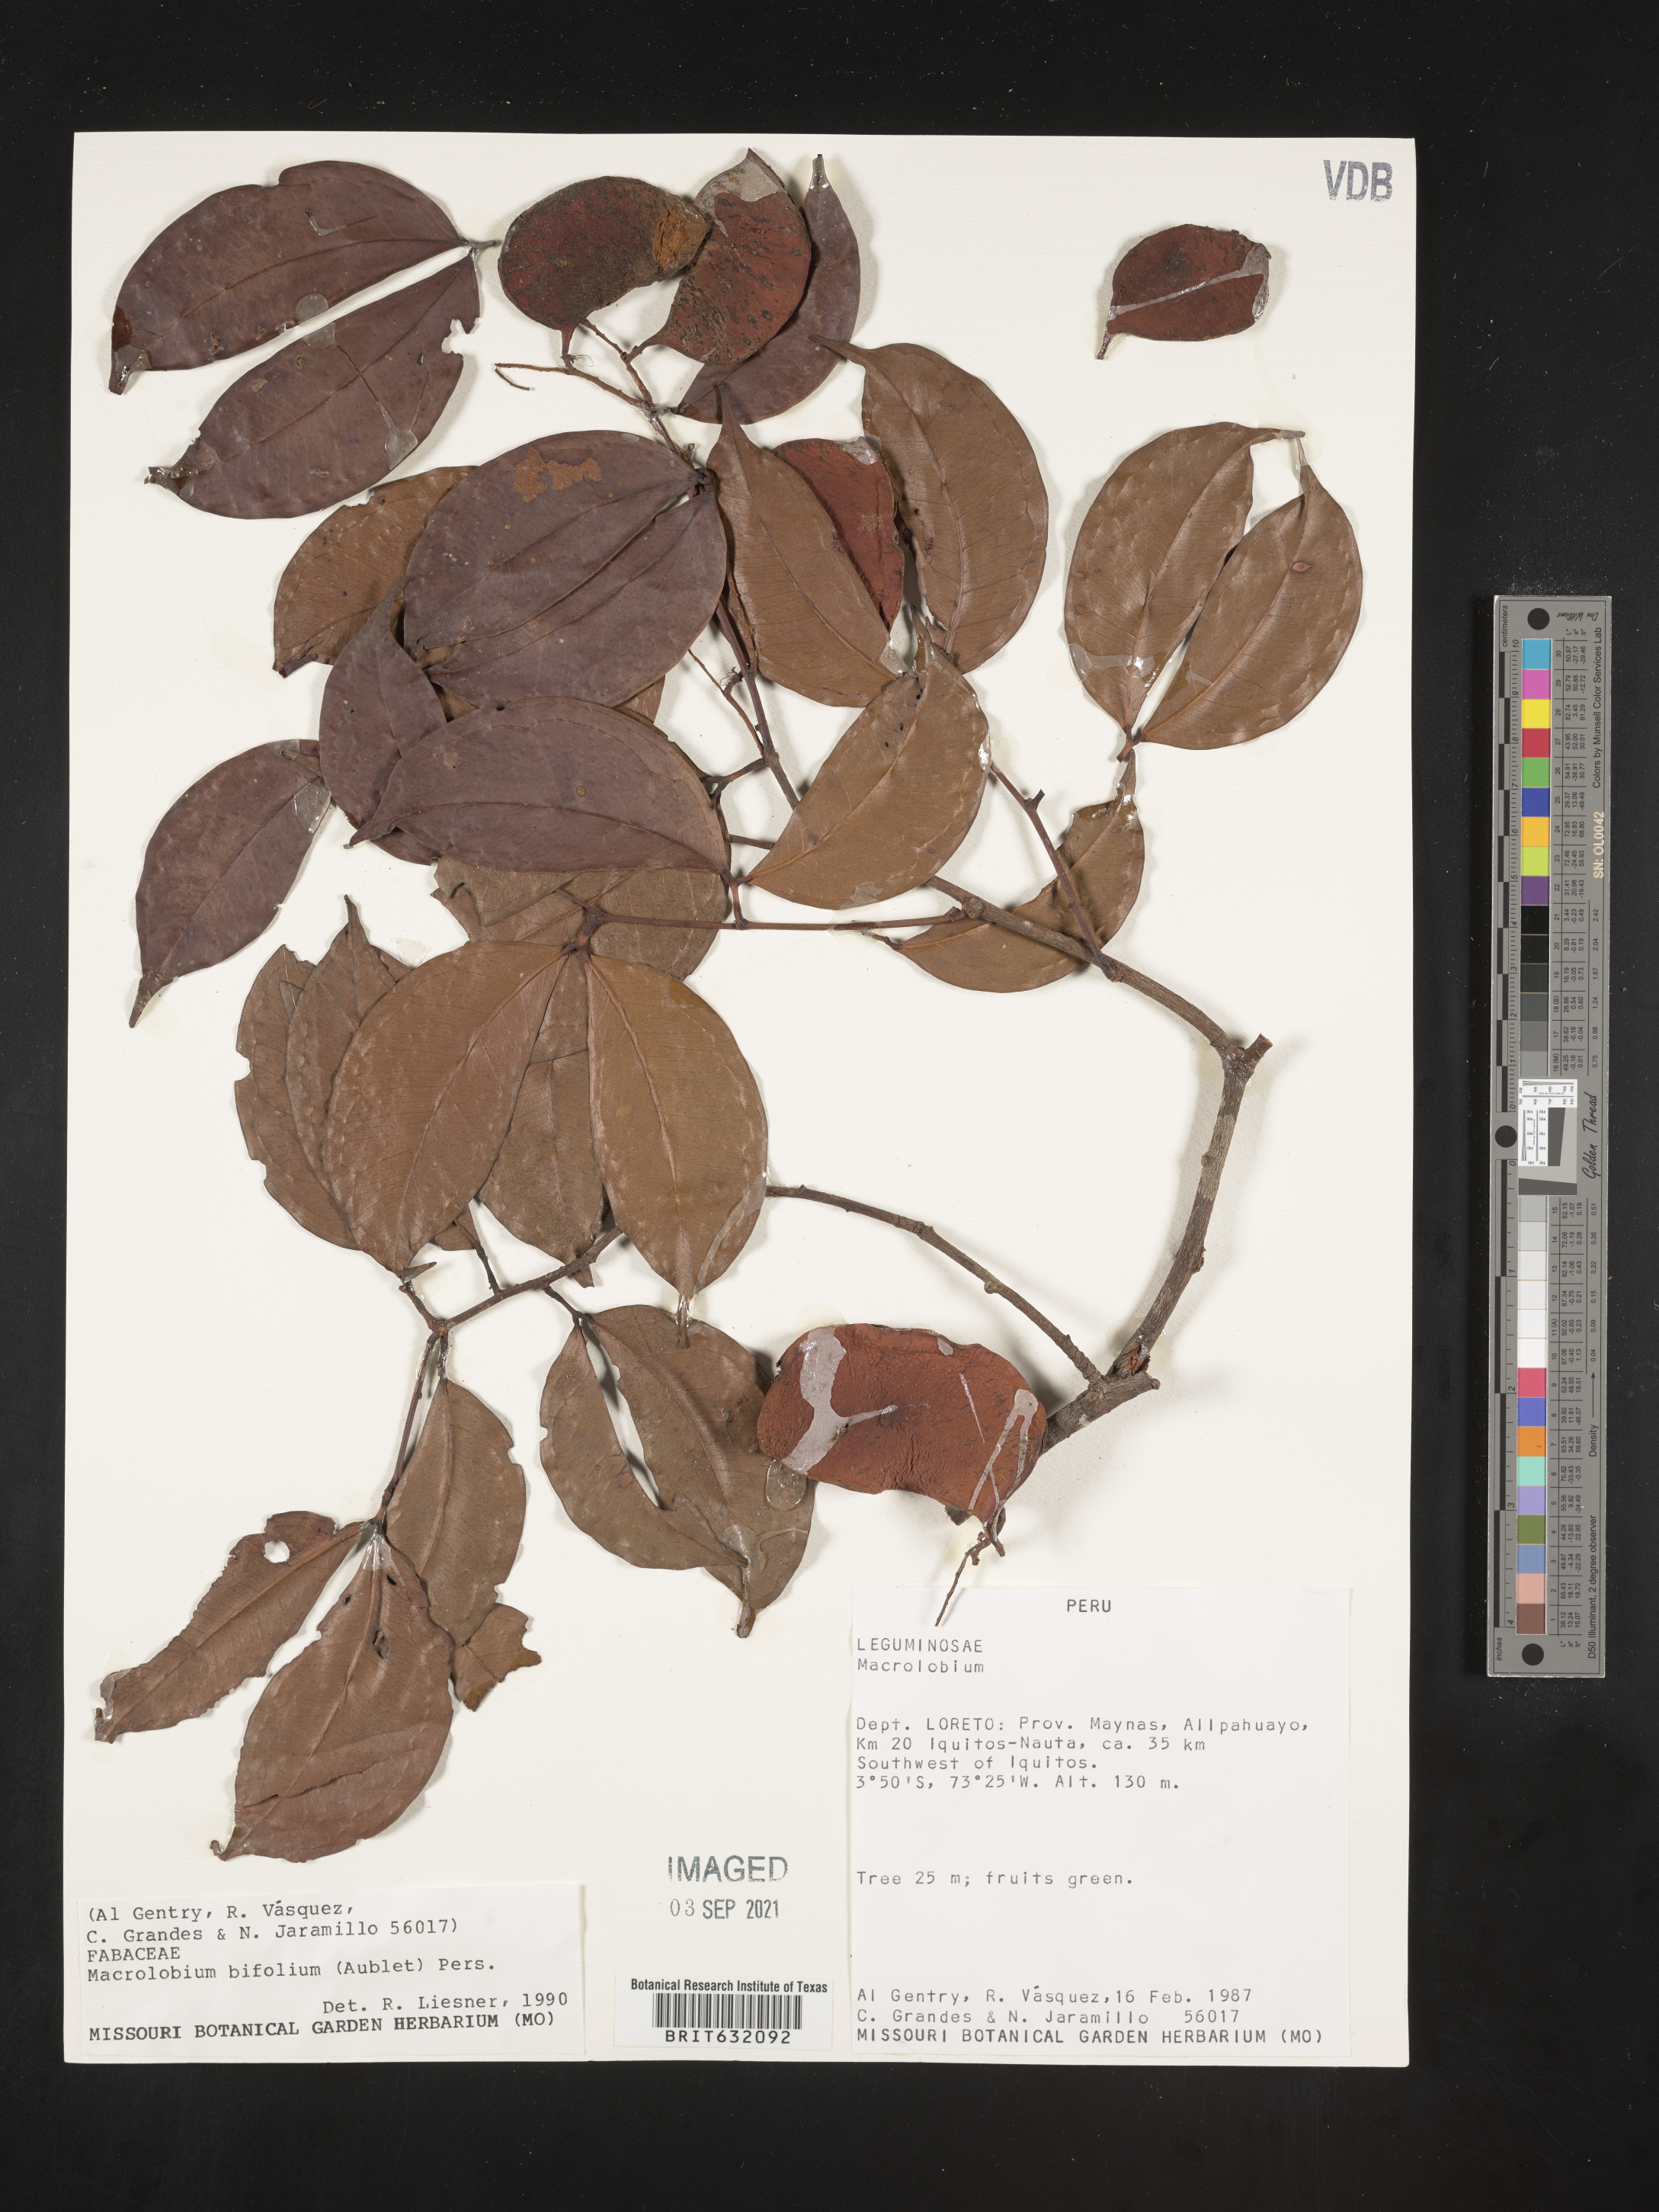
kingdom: Plantae
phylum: Tracheophyta
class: Magnoliopsida
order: Fabales
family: Fabaceae
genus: Macrolobium
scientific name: Macrolobium
